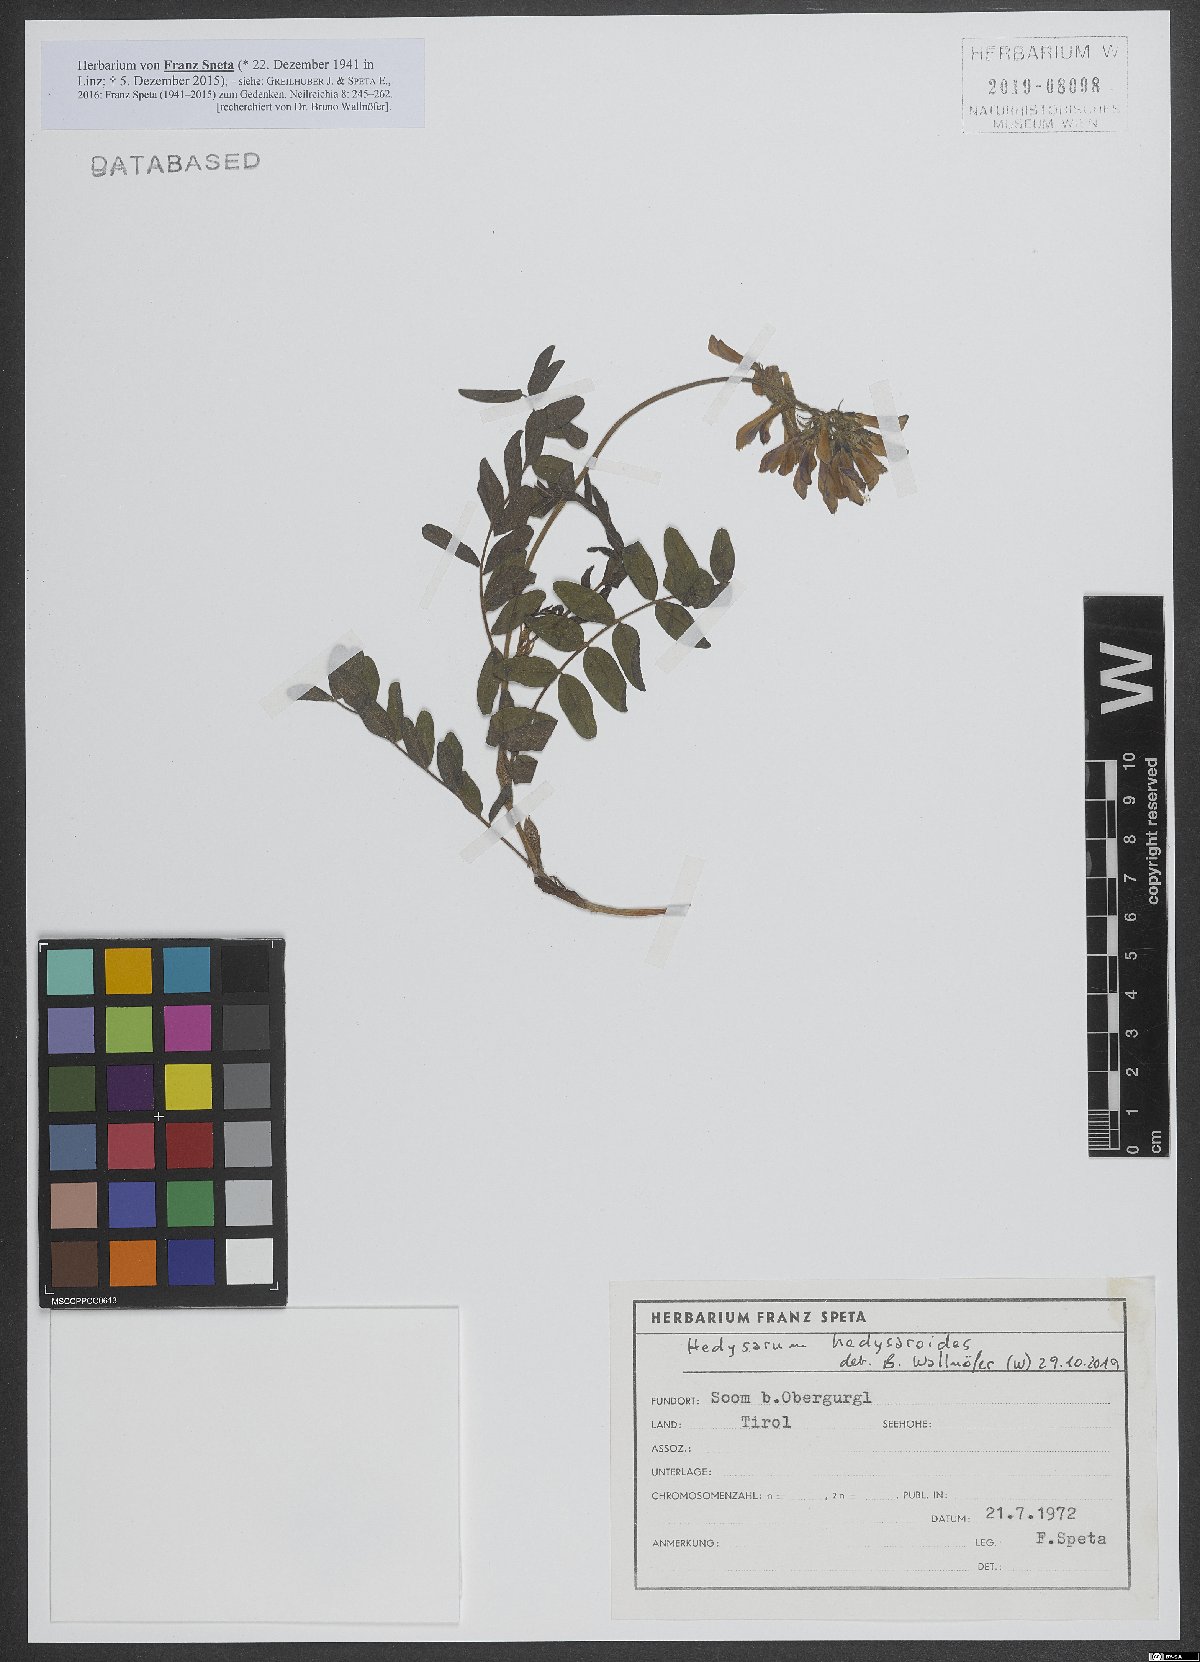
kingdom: Plantae
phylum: Tracheophyta
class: Magnoliopsida
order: Fabales
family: Fabaceae
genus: Hedysarum
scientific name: Hedysarum hedysaroides
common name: Alpine french-honeysuckle
